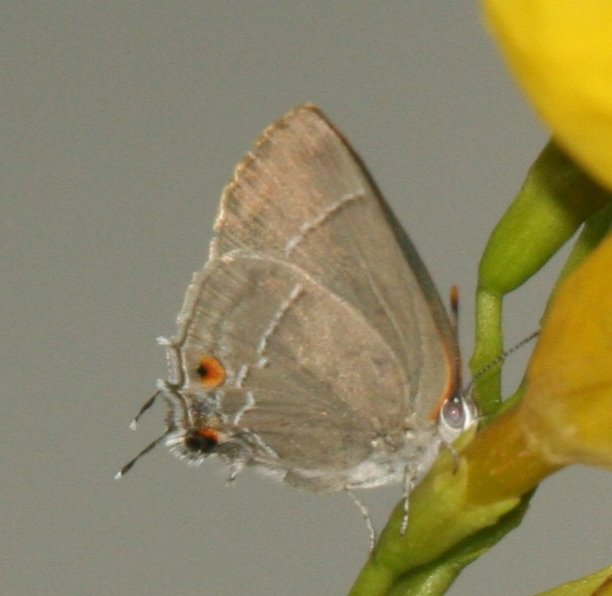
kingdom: Animalia
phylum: Arthropoda
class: Insecta
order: Lepidoptera
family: Lycaenidae
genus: Thecla
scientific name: Thecla marius
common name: Marius Hairstreak
